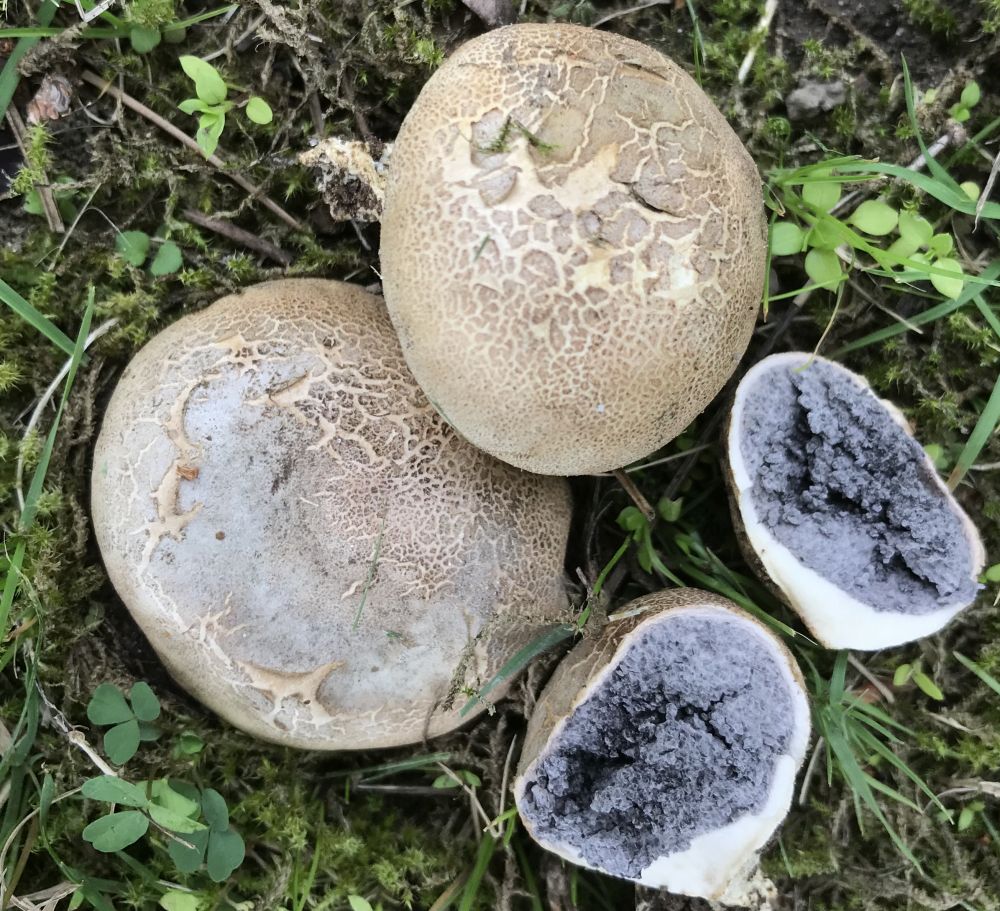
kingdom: Fungi
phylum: Basidiomycota
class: Agaricomycetes
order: Boletales
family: Sclerodermataceae
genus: Scleroderma
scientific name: Scleroderma
